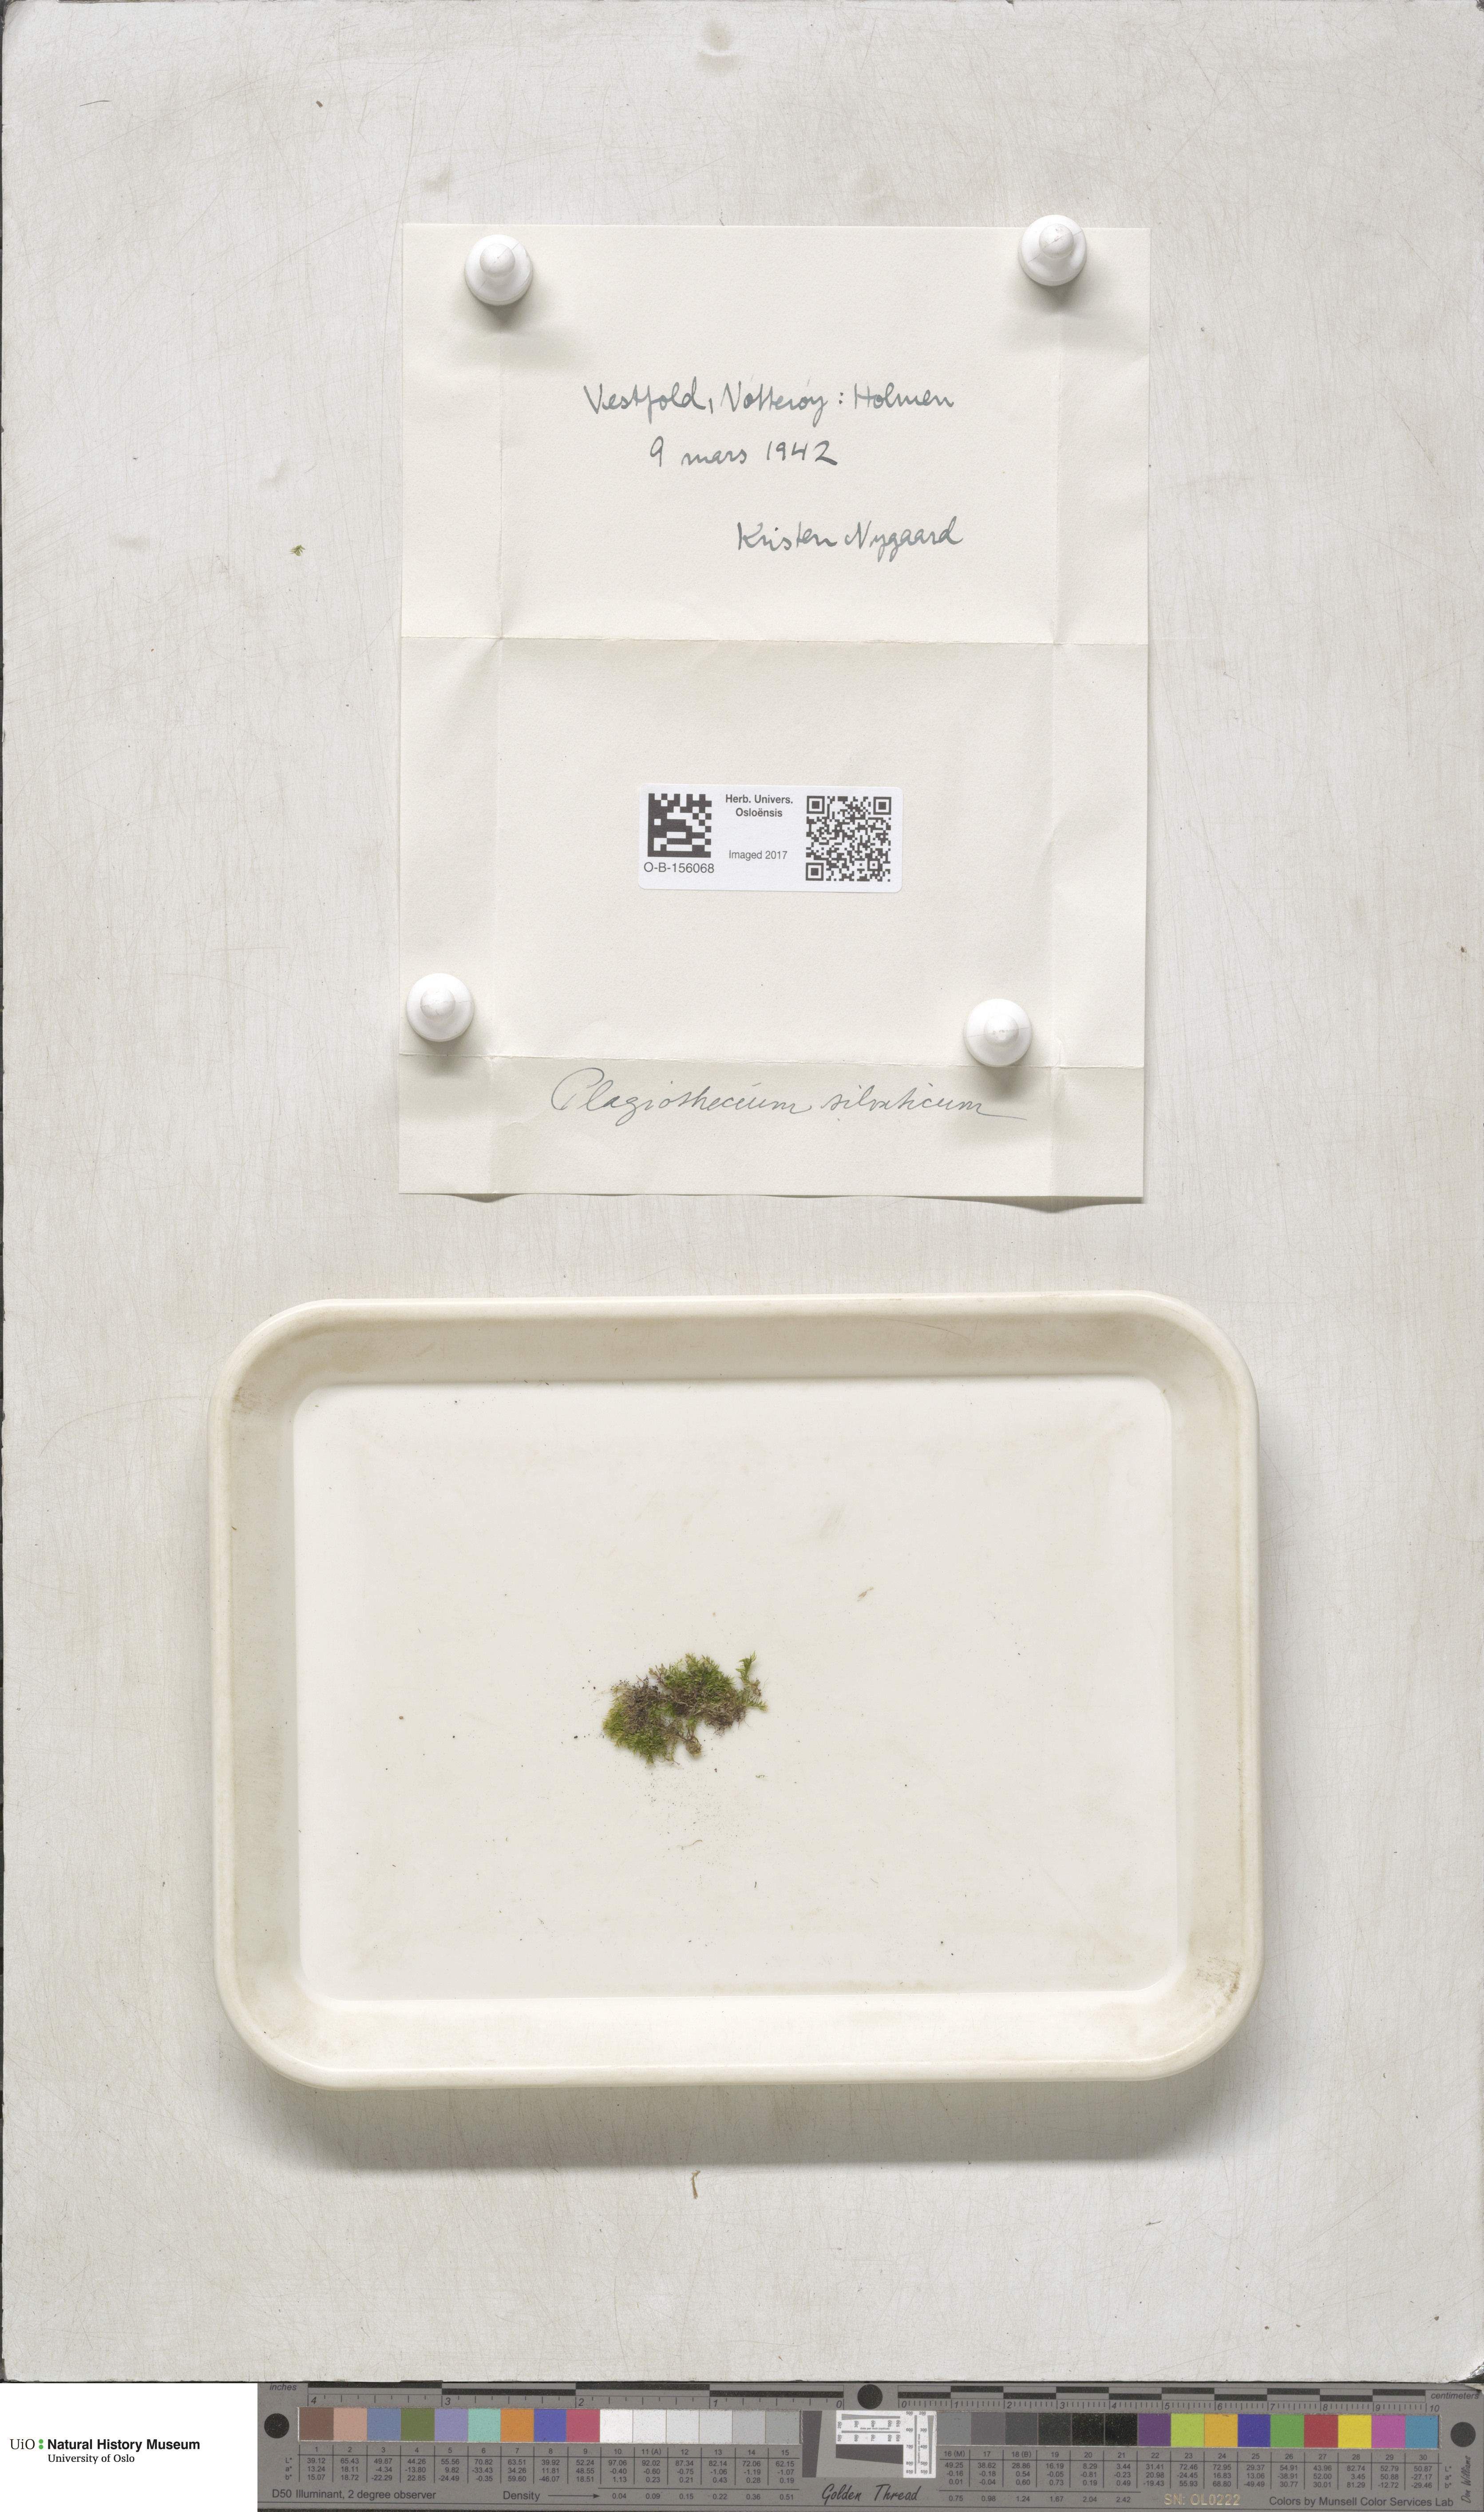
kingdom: Plantae
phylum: Bryophyta
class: Bryopsida
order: Hypnales
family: Plagiotheciaceae
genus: Plagiothecium
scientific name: Plagiothecium nemorale
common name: Woodsy silk-moss
